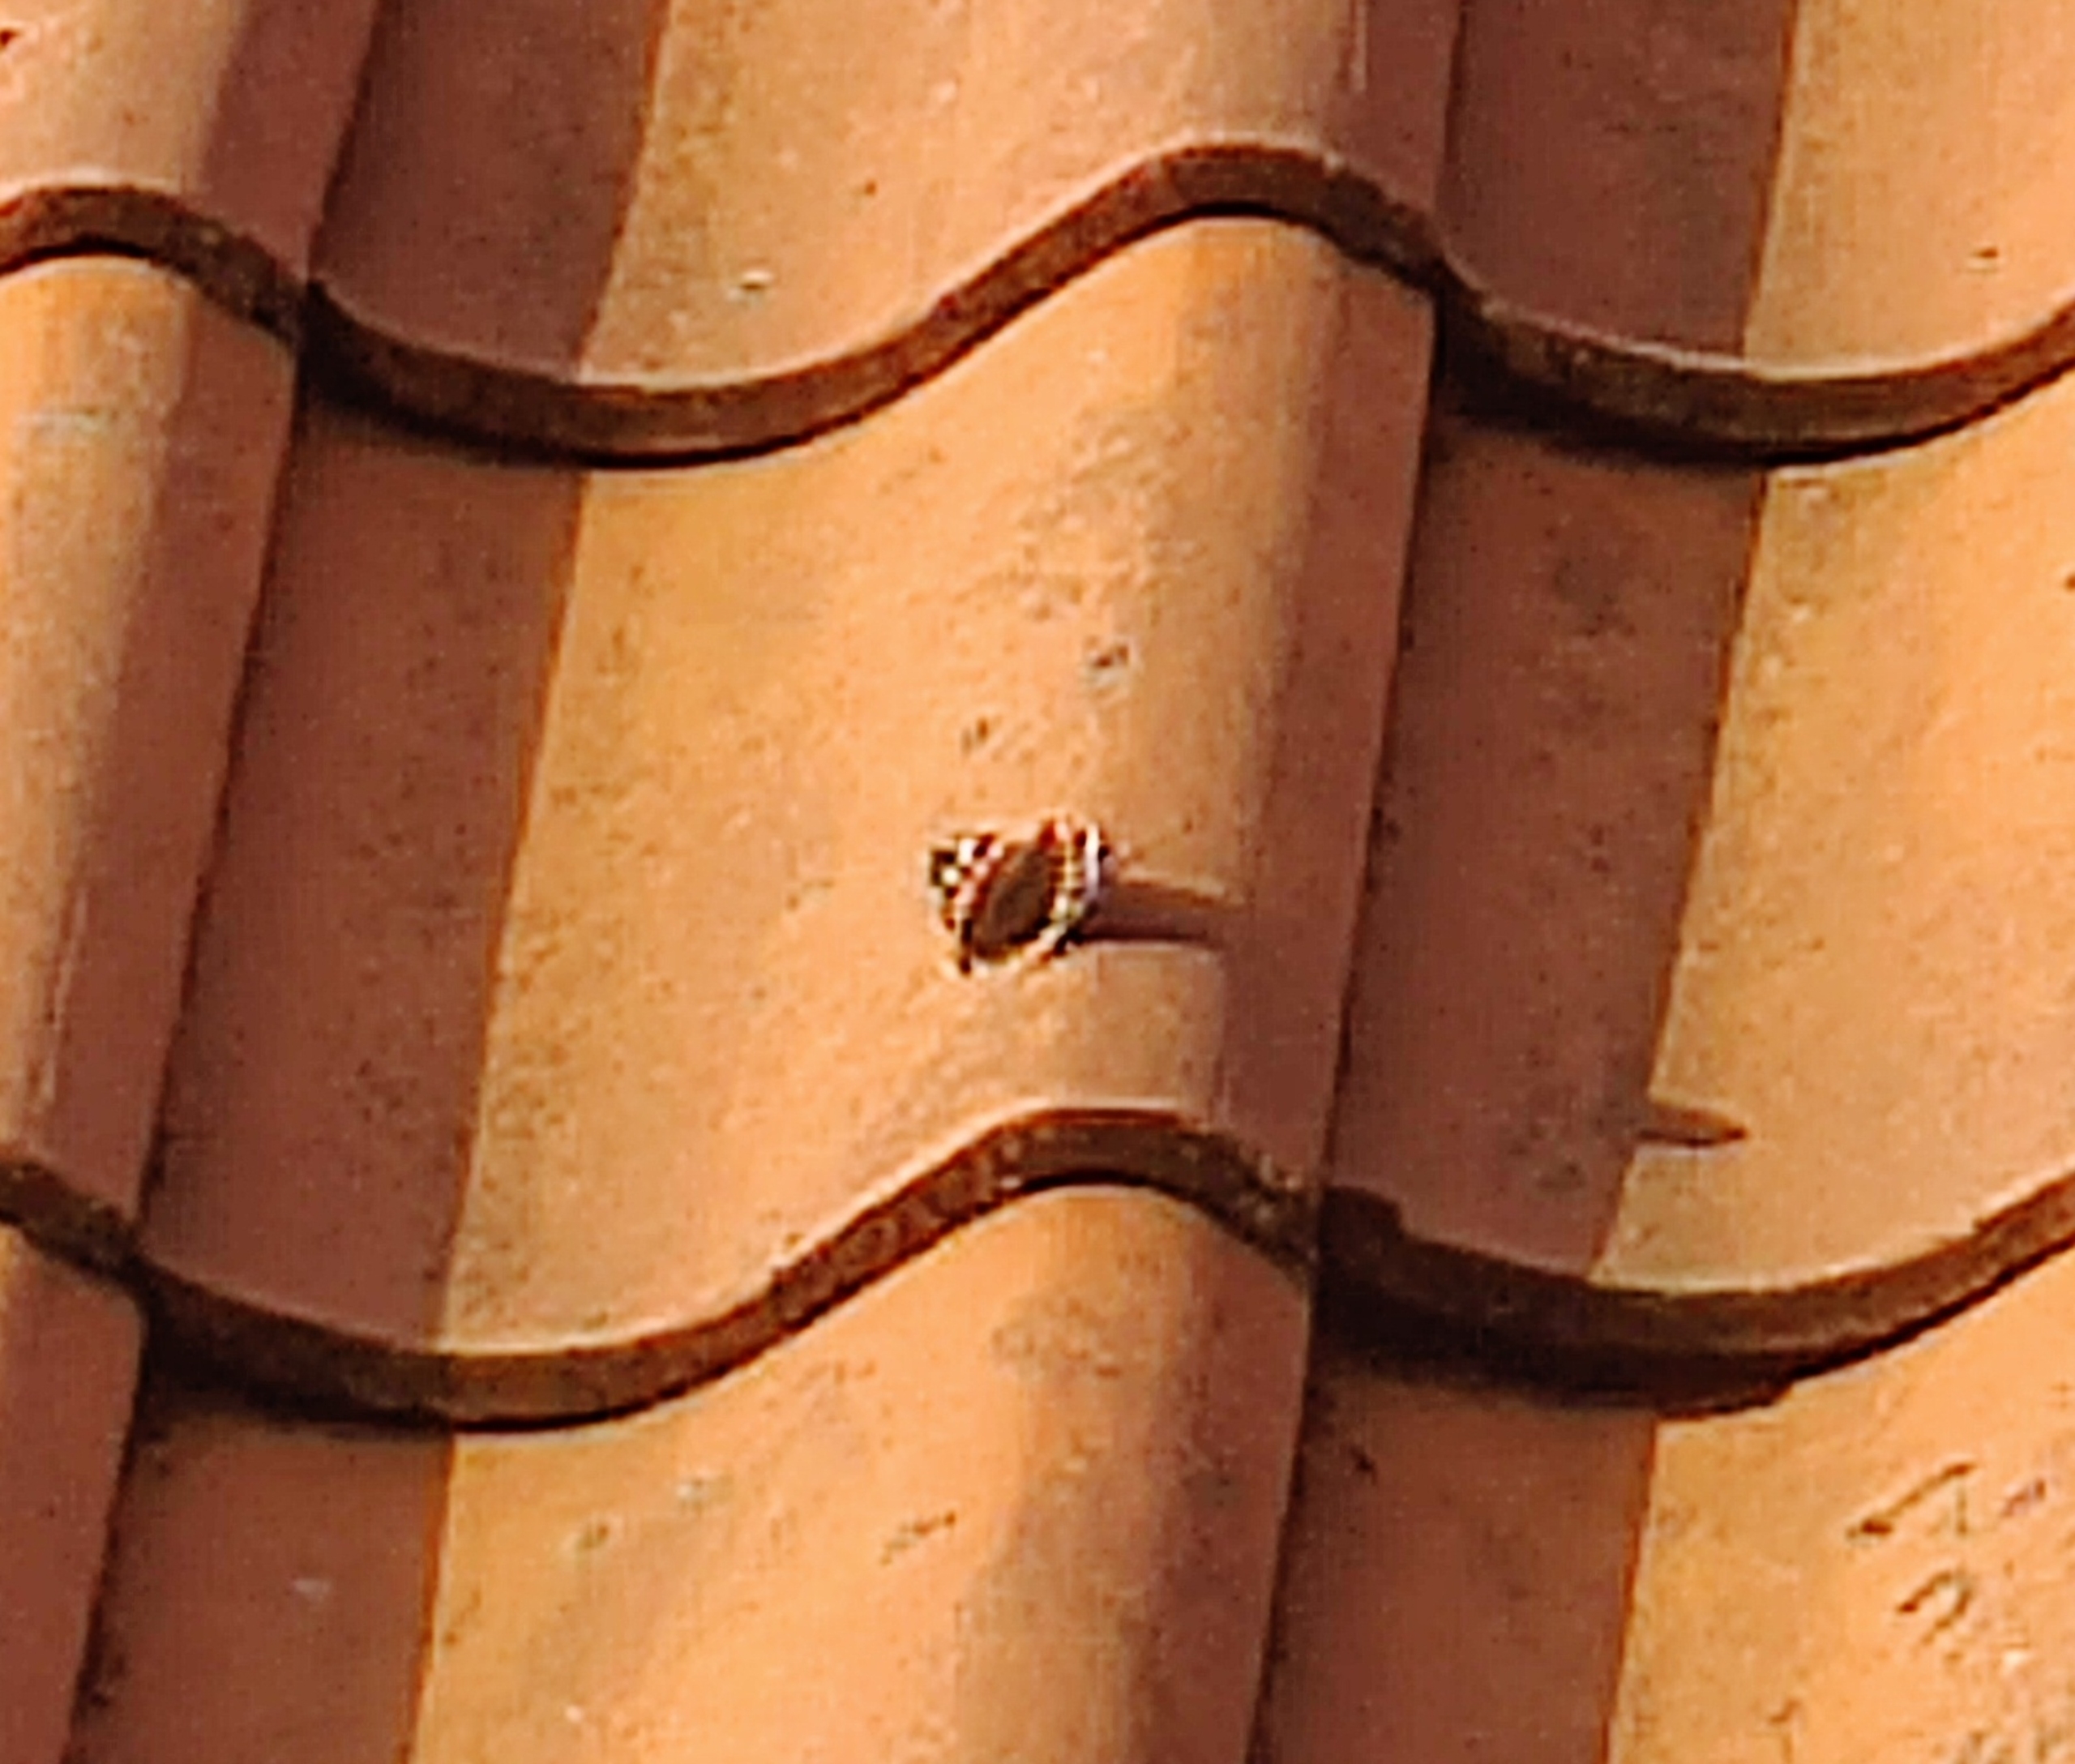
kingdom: Animalia
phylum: Arthropoda
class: Insecta
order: Lepidoptera
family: Nymphalidae
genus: Vanessa
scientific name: Vanessa atalanta
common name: Admiral
